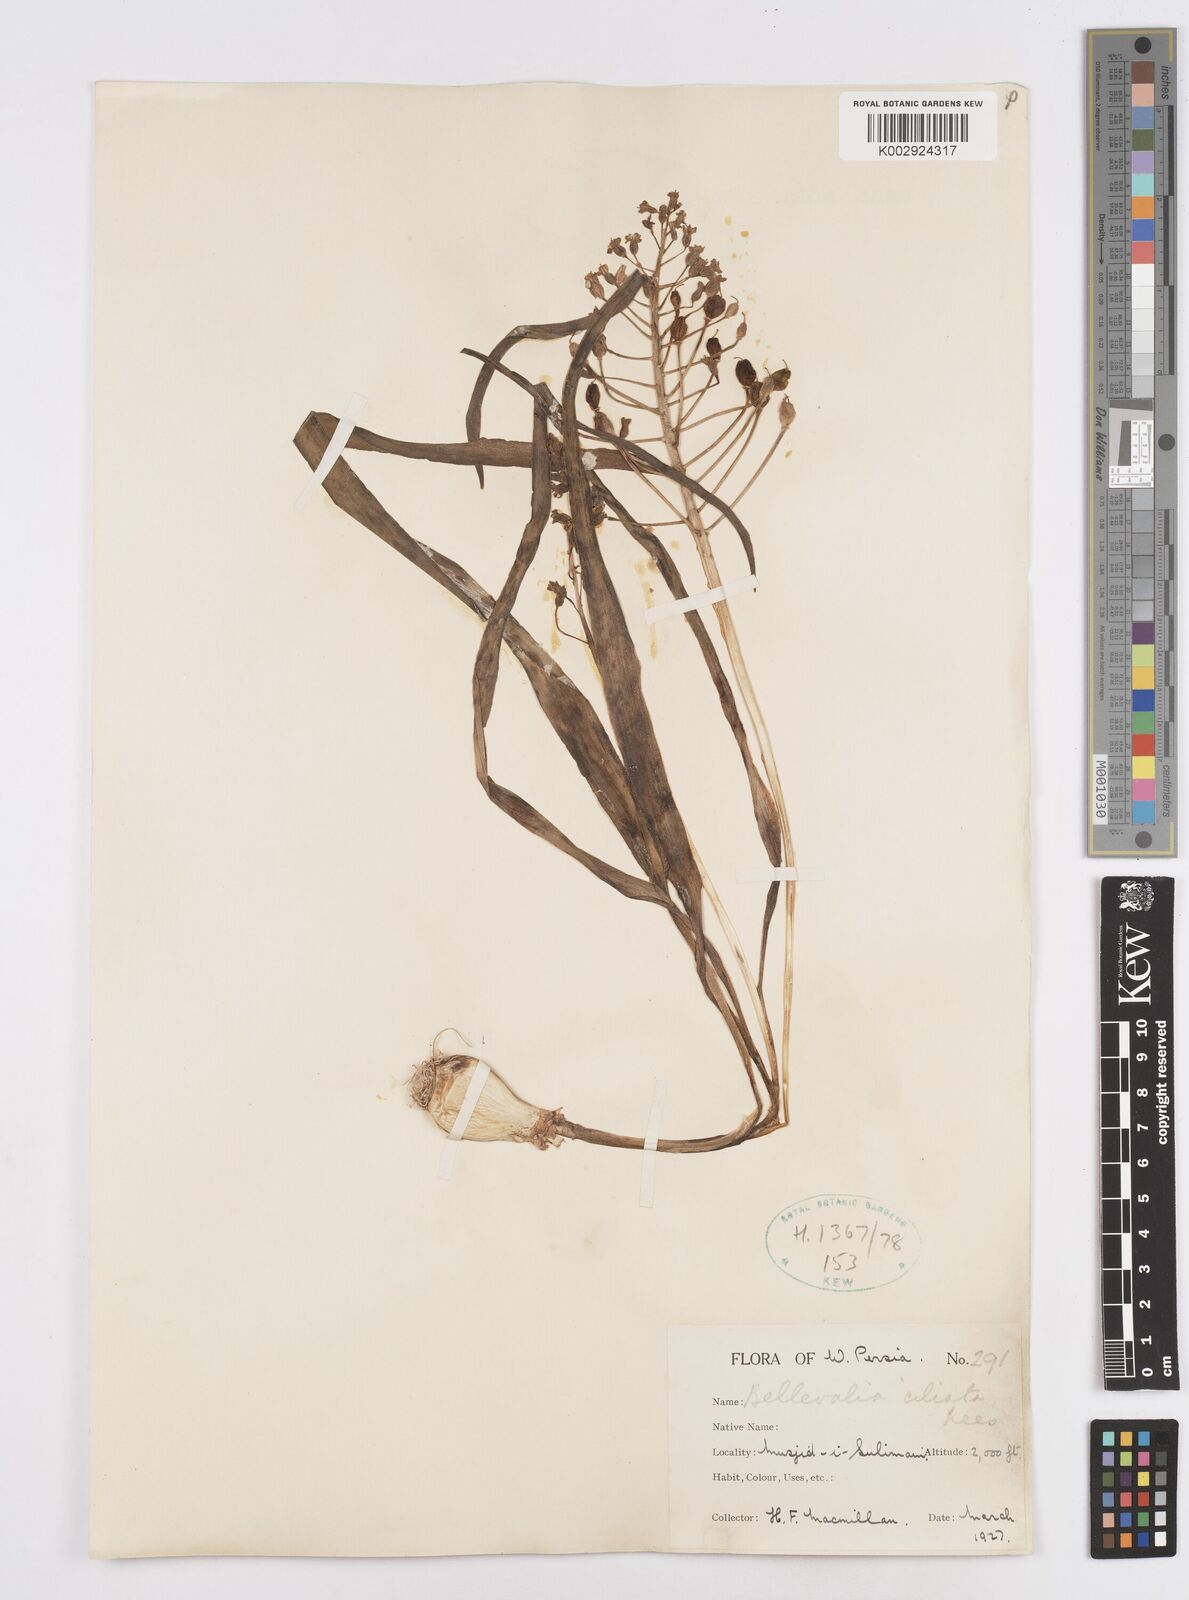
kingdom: Plantae
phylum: Tracheophyta
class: Liliopsida
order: Asparagales
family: Asparagaceae
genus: Bellevalia
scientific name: Bellevalia ciliata
